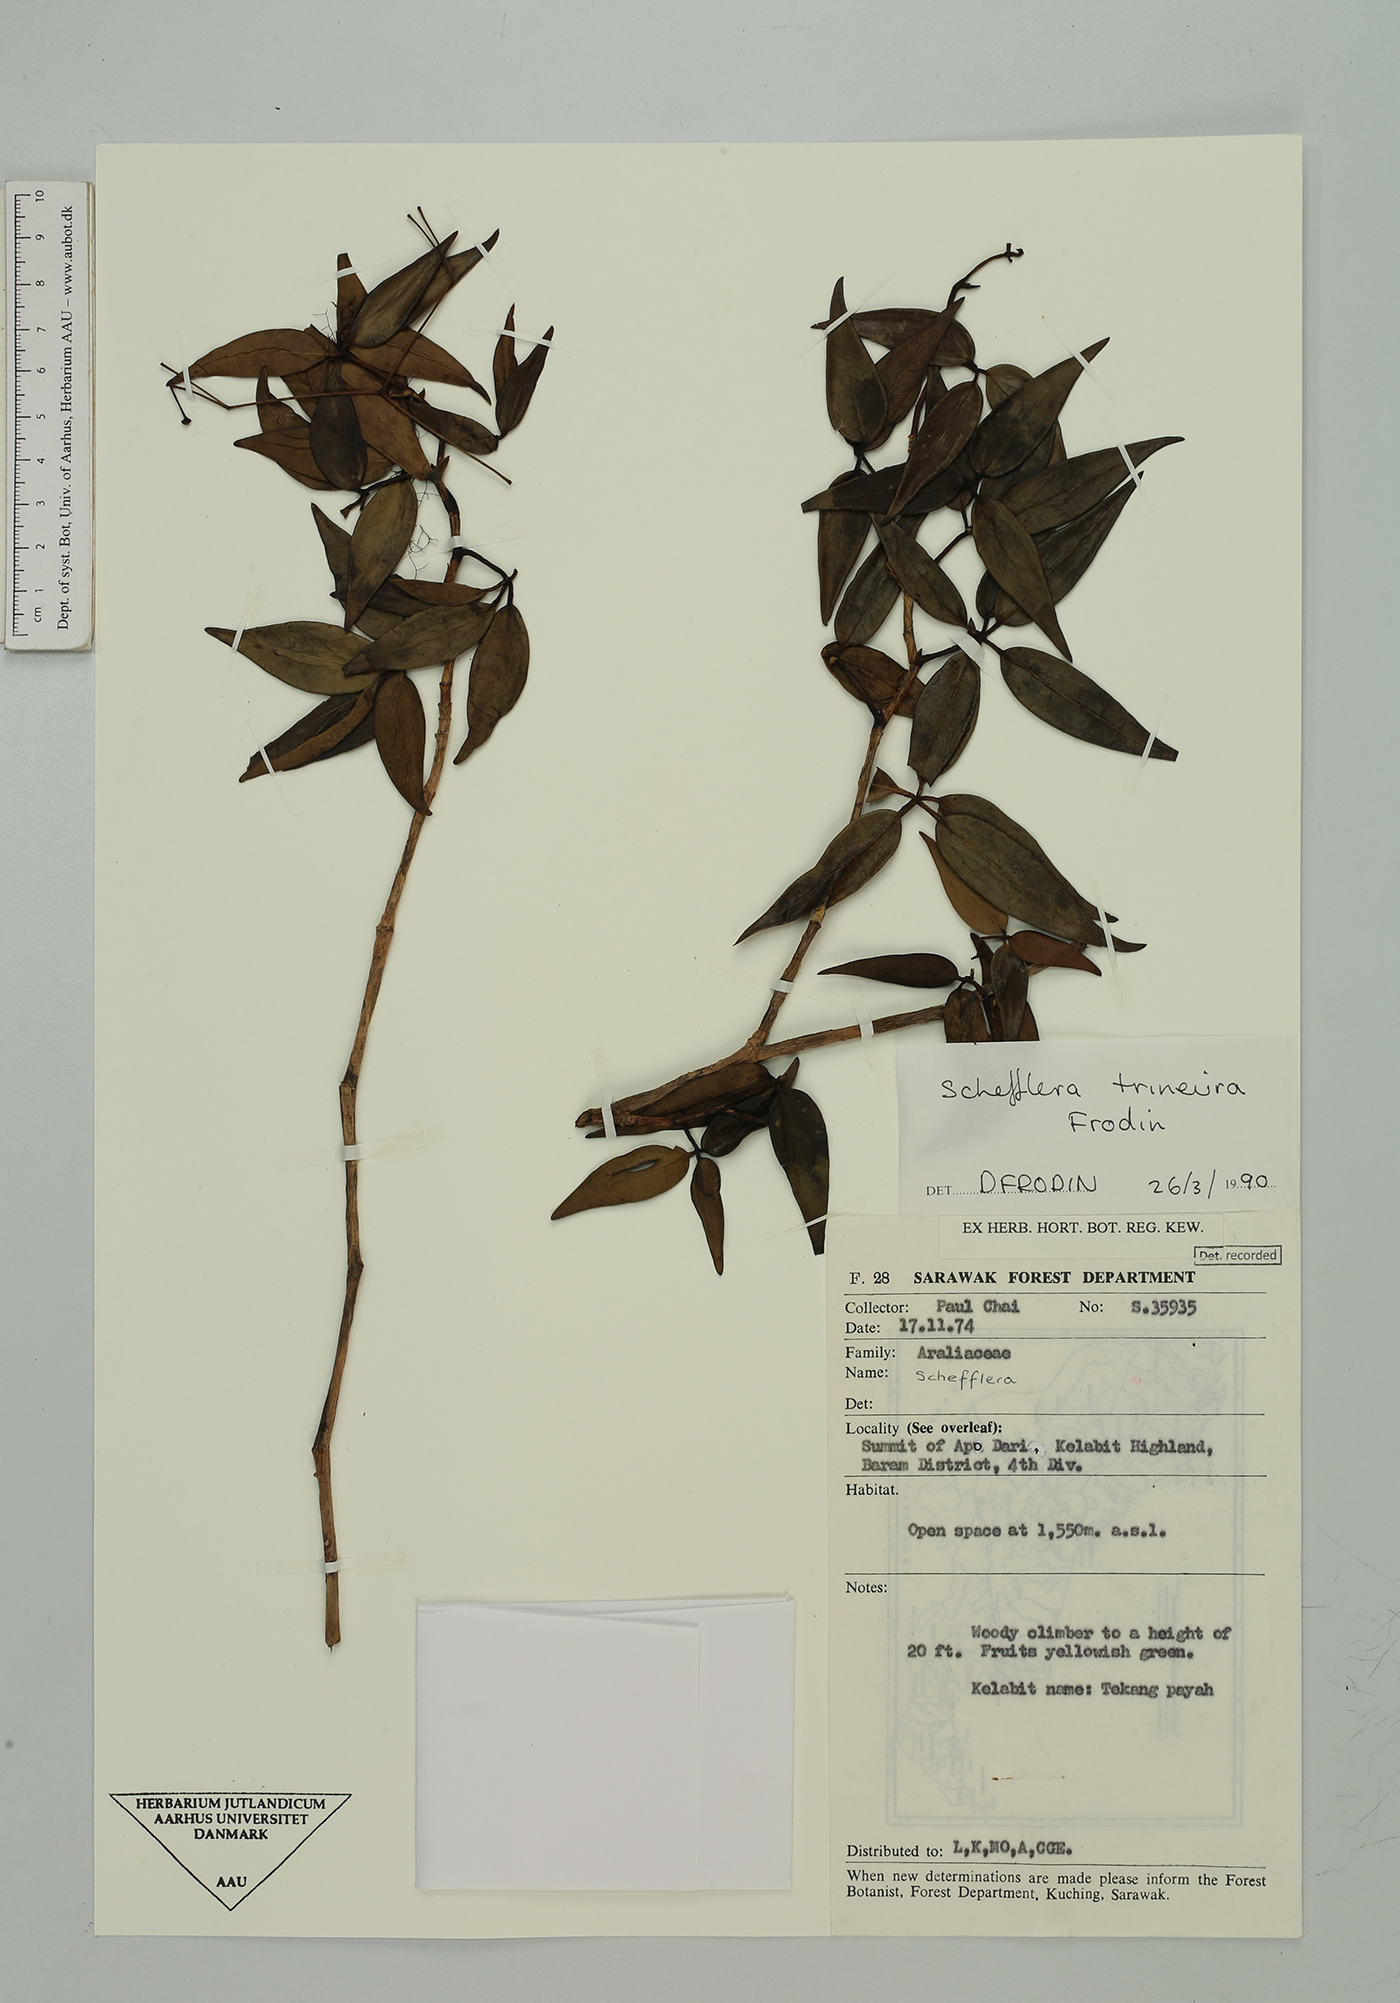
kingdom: Plantae
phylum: Tracheophyta
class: Magnoliopsida
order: Apiales
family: Araliaceae
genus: Heptapleurum
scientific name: Heptapleurum trineurum
